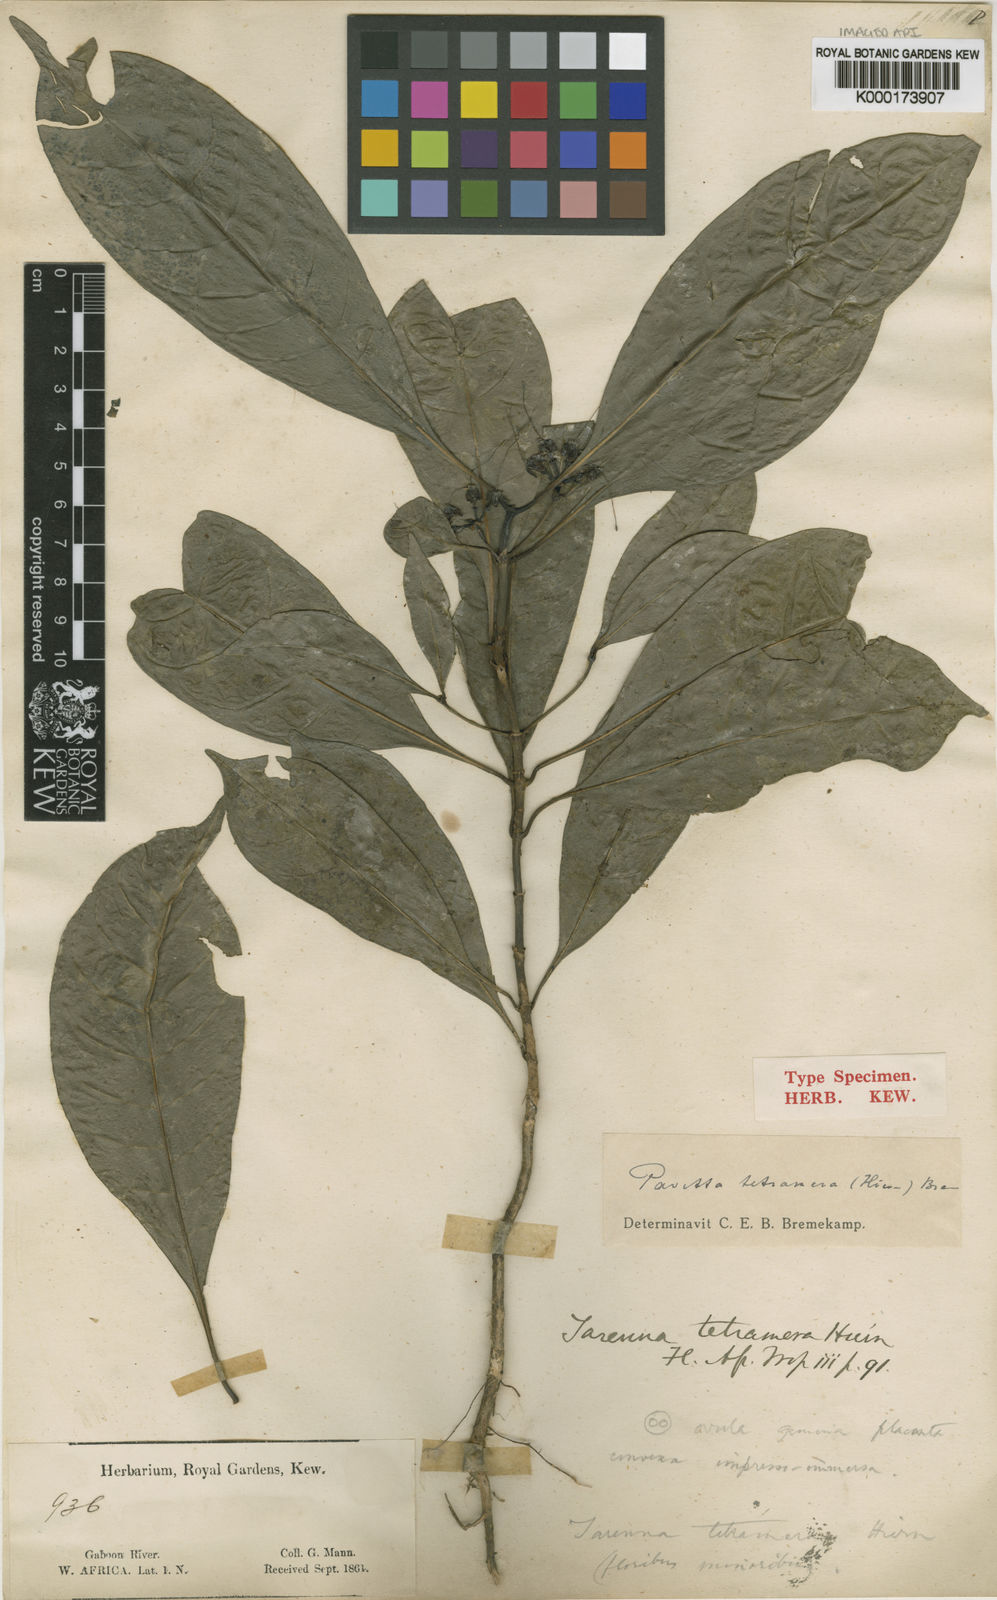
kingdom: Plantae
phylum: Tracheophyta
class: Magnoliopsida
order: Gentianales
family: Rubiaceae
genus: Pavetta
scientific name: Pavetta tetramera
